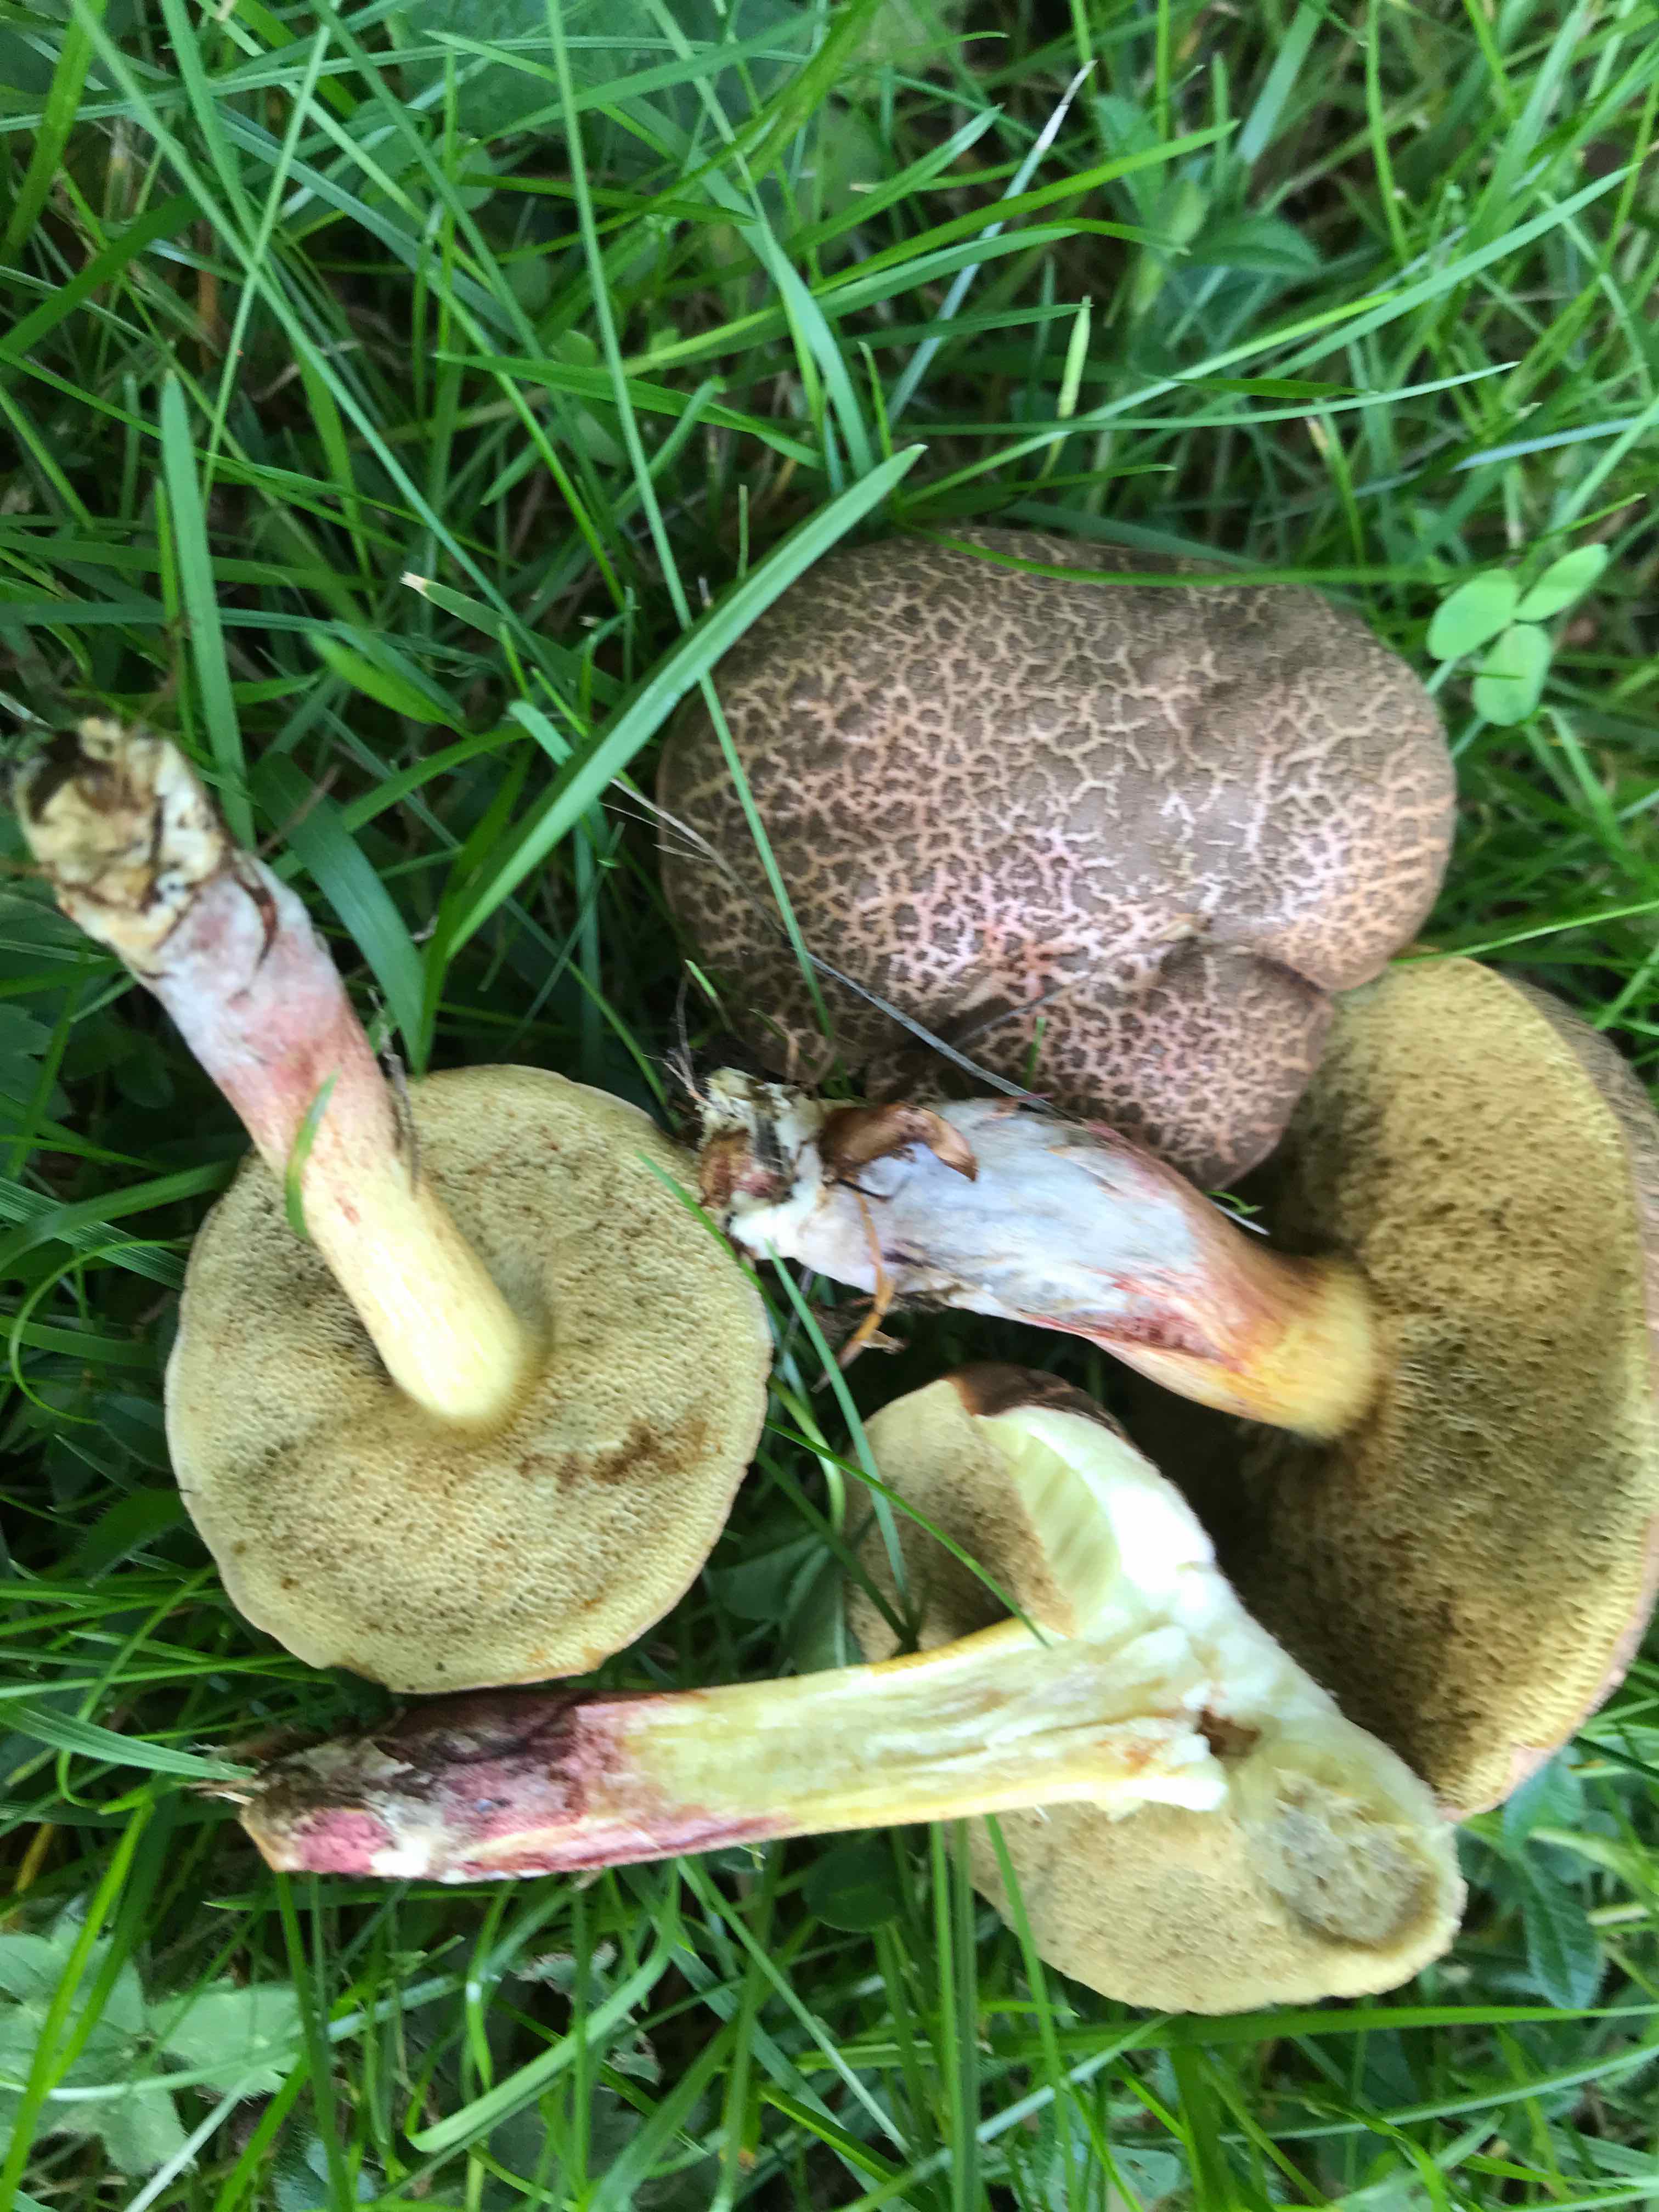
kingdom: Fungi
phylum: Basidiomycota
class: Agaricomycetes
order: Boletales
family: Boletaceae
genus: Xerocomellus
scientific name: Xerocomellus cisalpinus
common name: finsprukken rørhat
